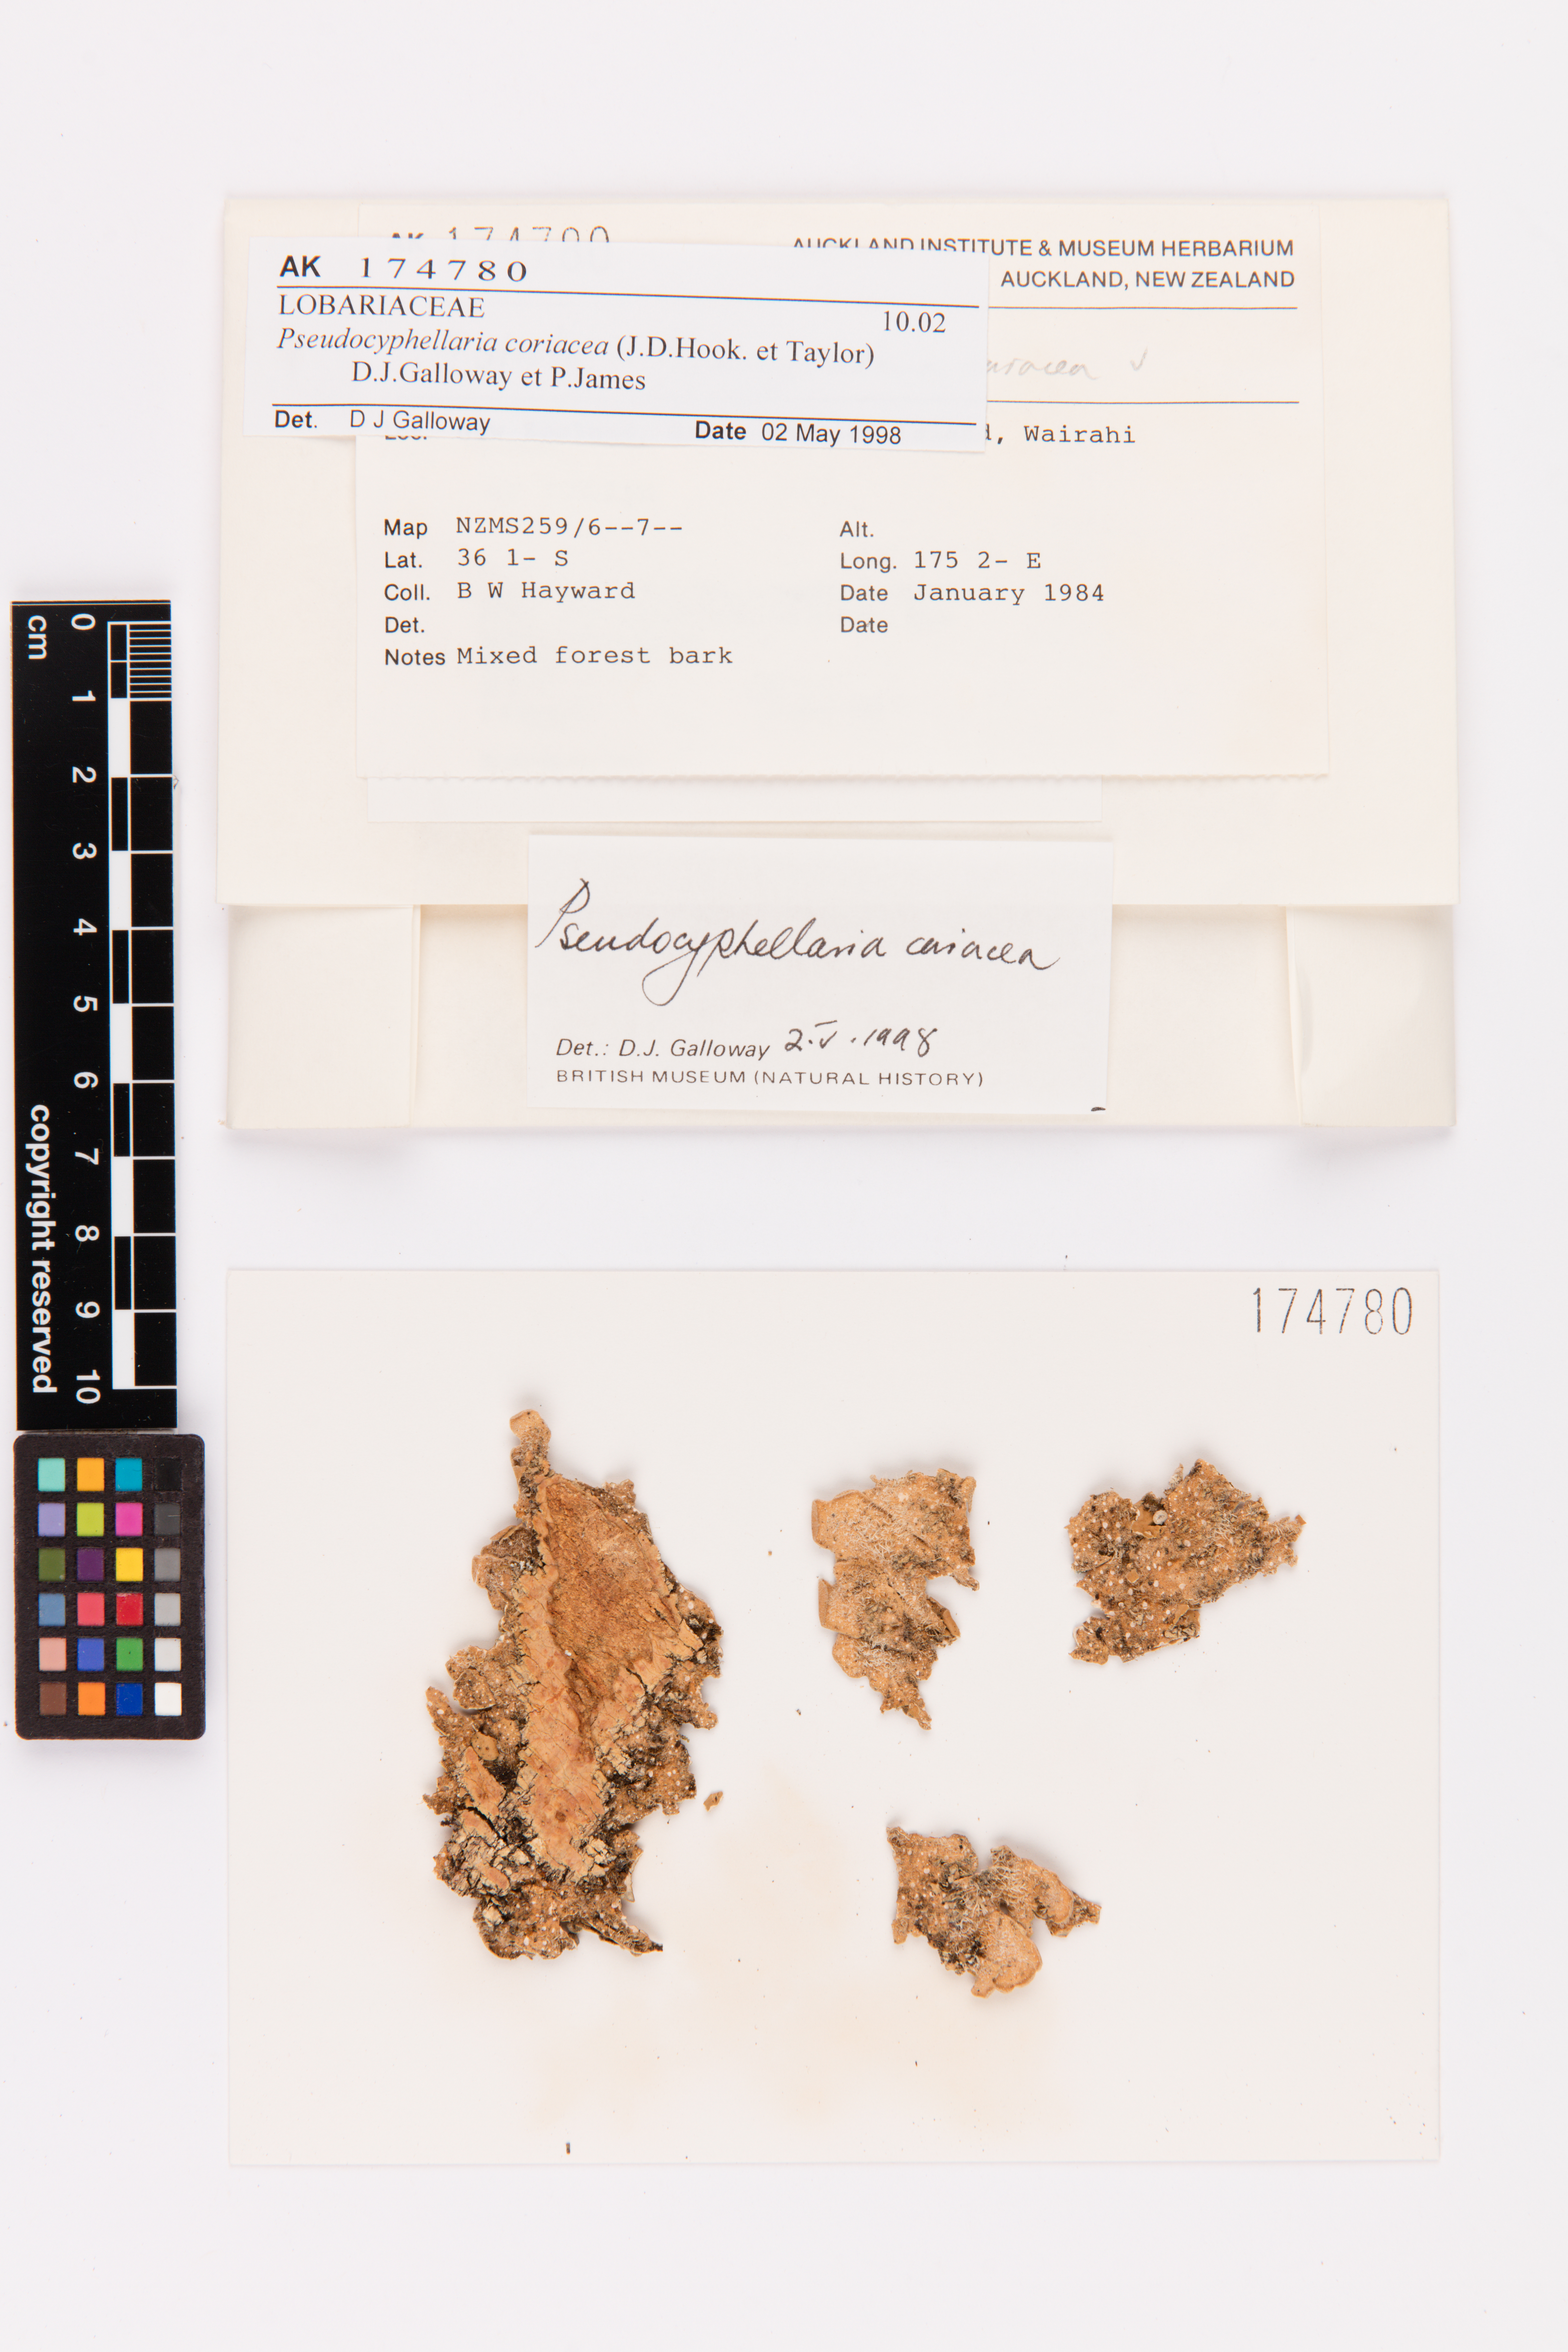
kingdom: Fungi
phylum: Ascomycota
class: Lecanoromycetes
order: Peltigerales
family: Lobariaceae
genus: Pseudocyphellaria
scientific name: Pseudocyphellaria coriacea
